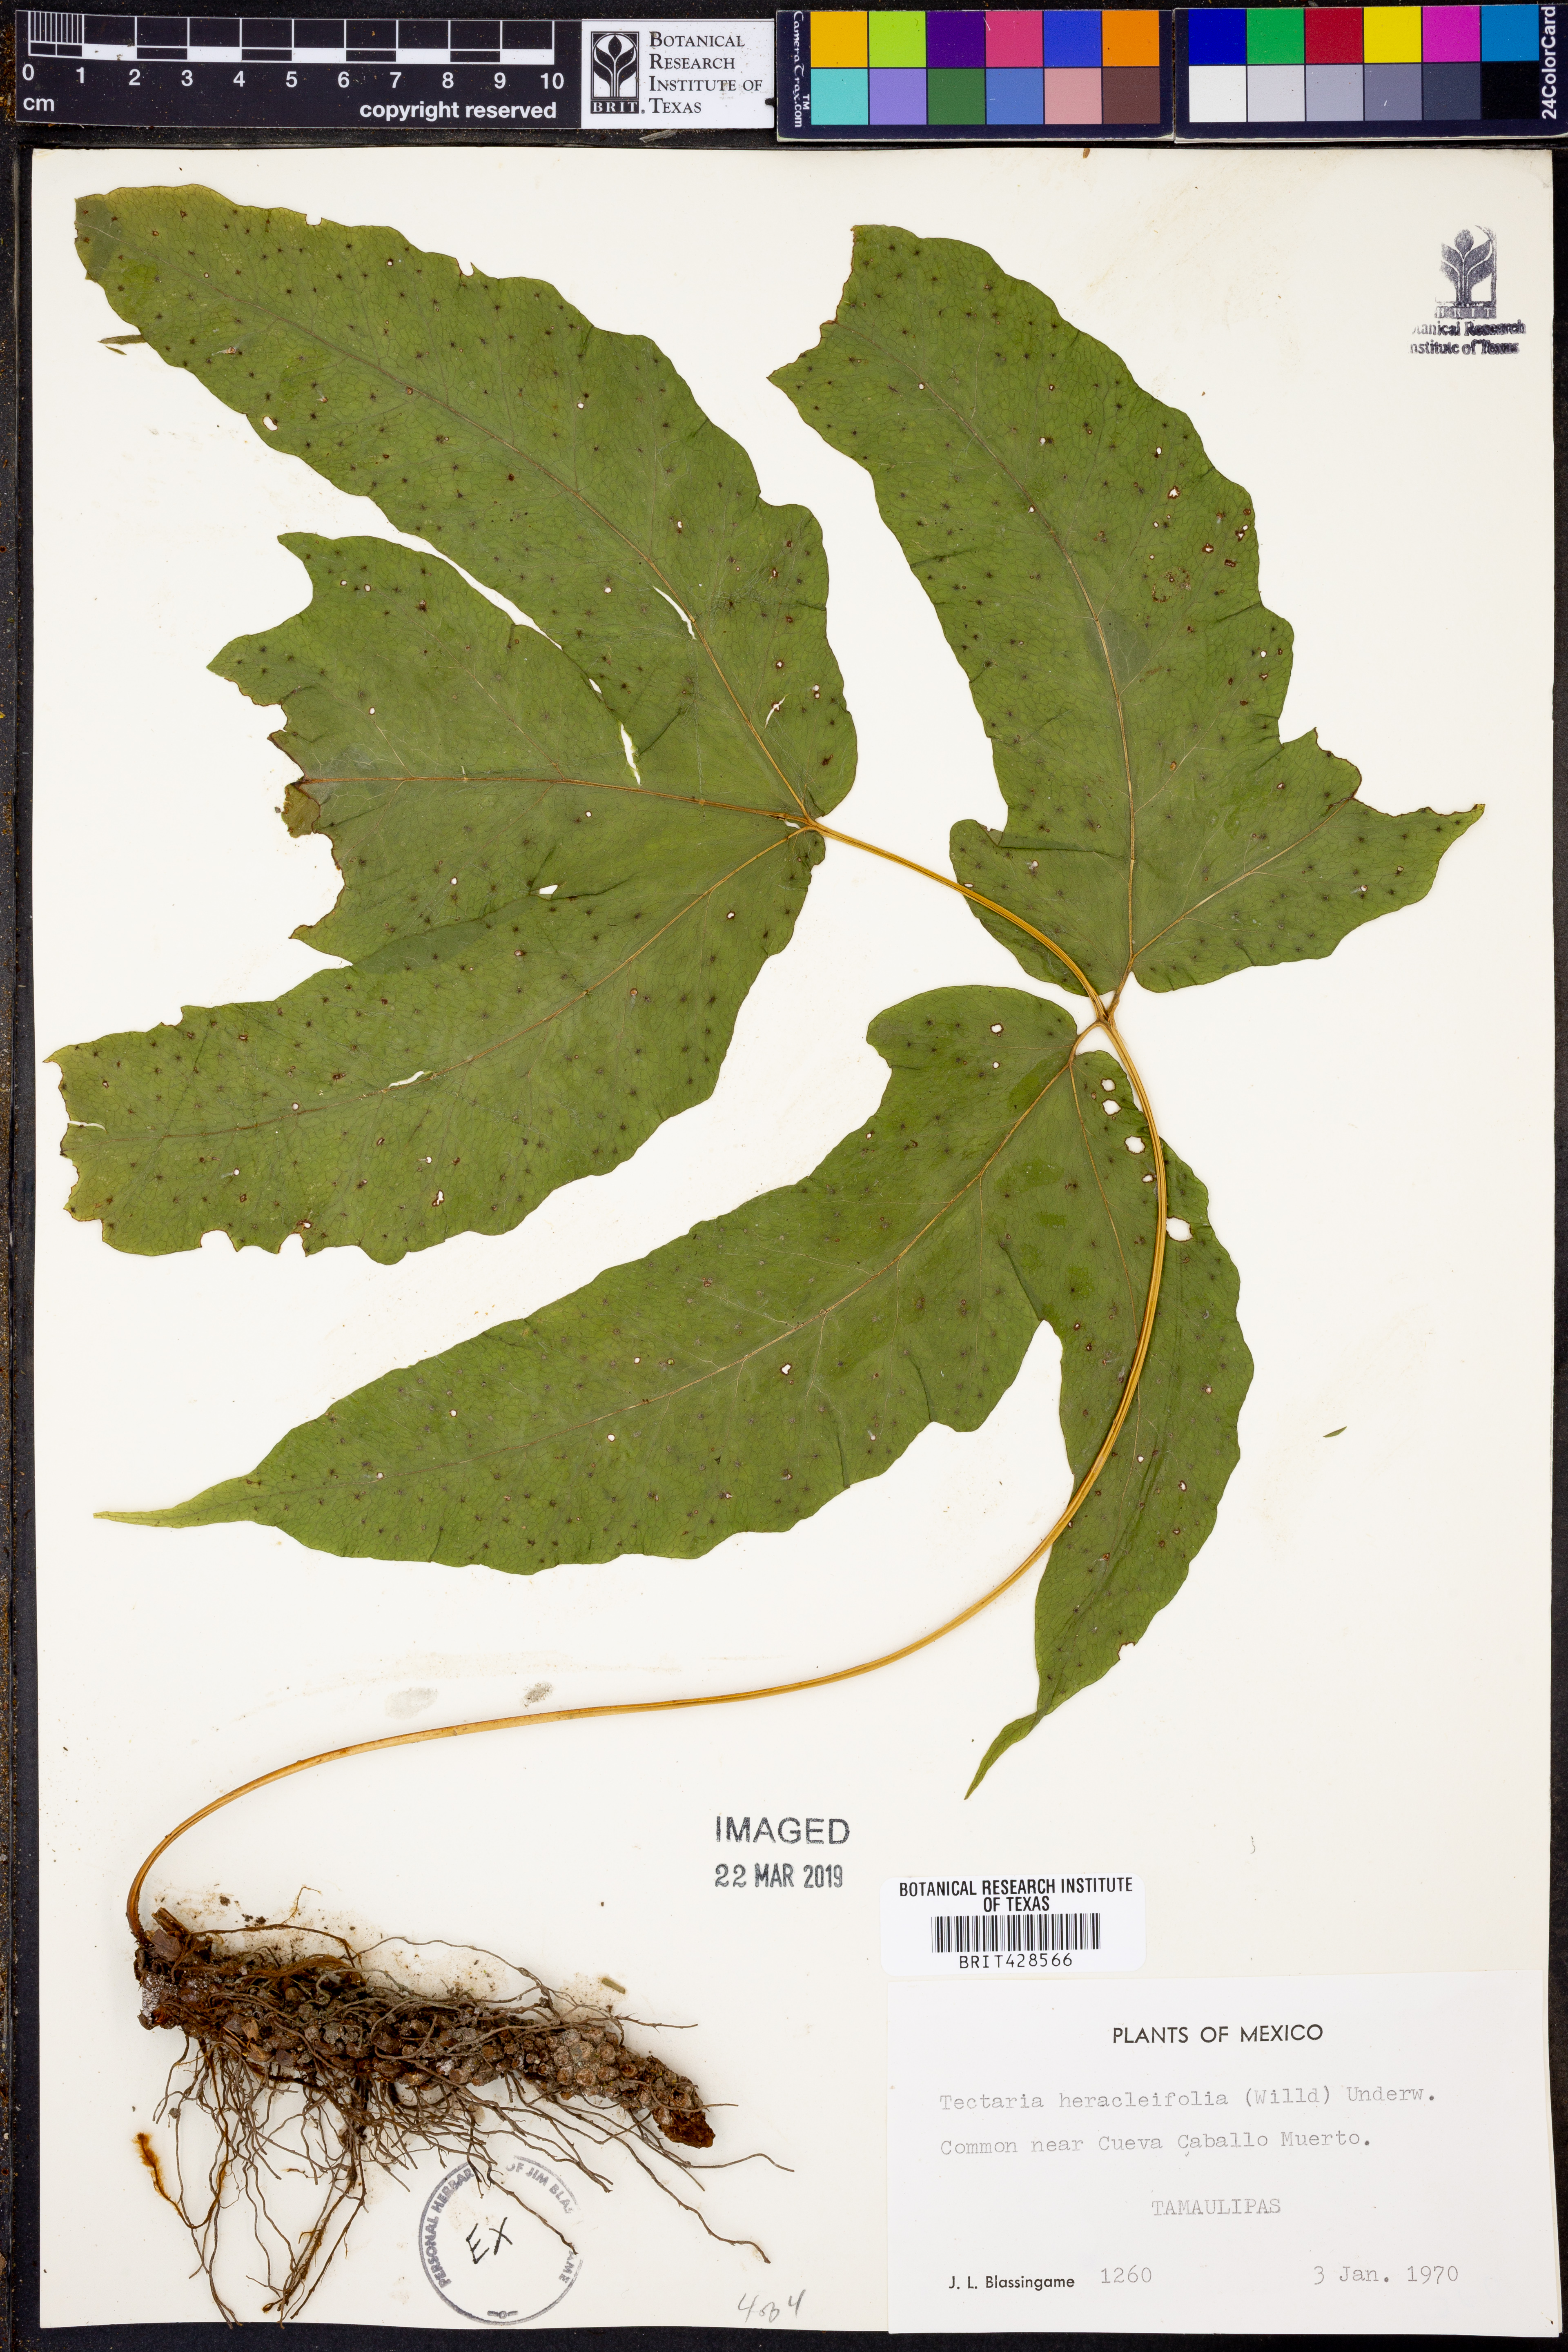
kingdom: Plantae
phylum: Tracheophyta
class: Polypodiopsida
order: Polypodiales
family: Tectariaceae
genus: Tectaria
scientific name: Tectaria heracleifolia
